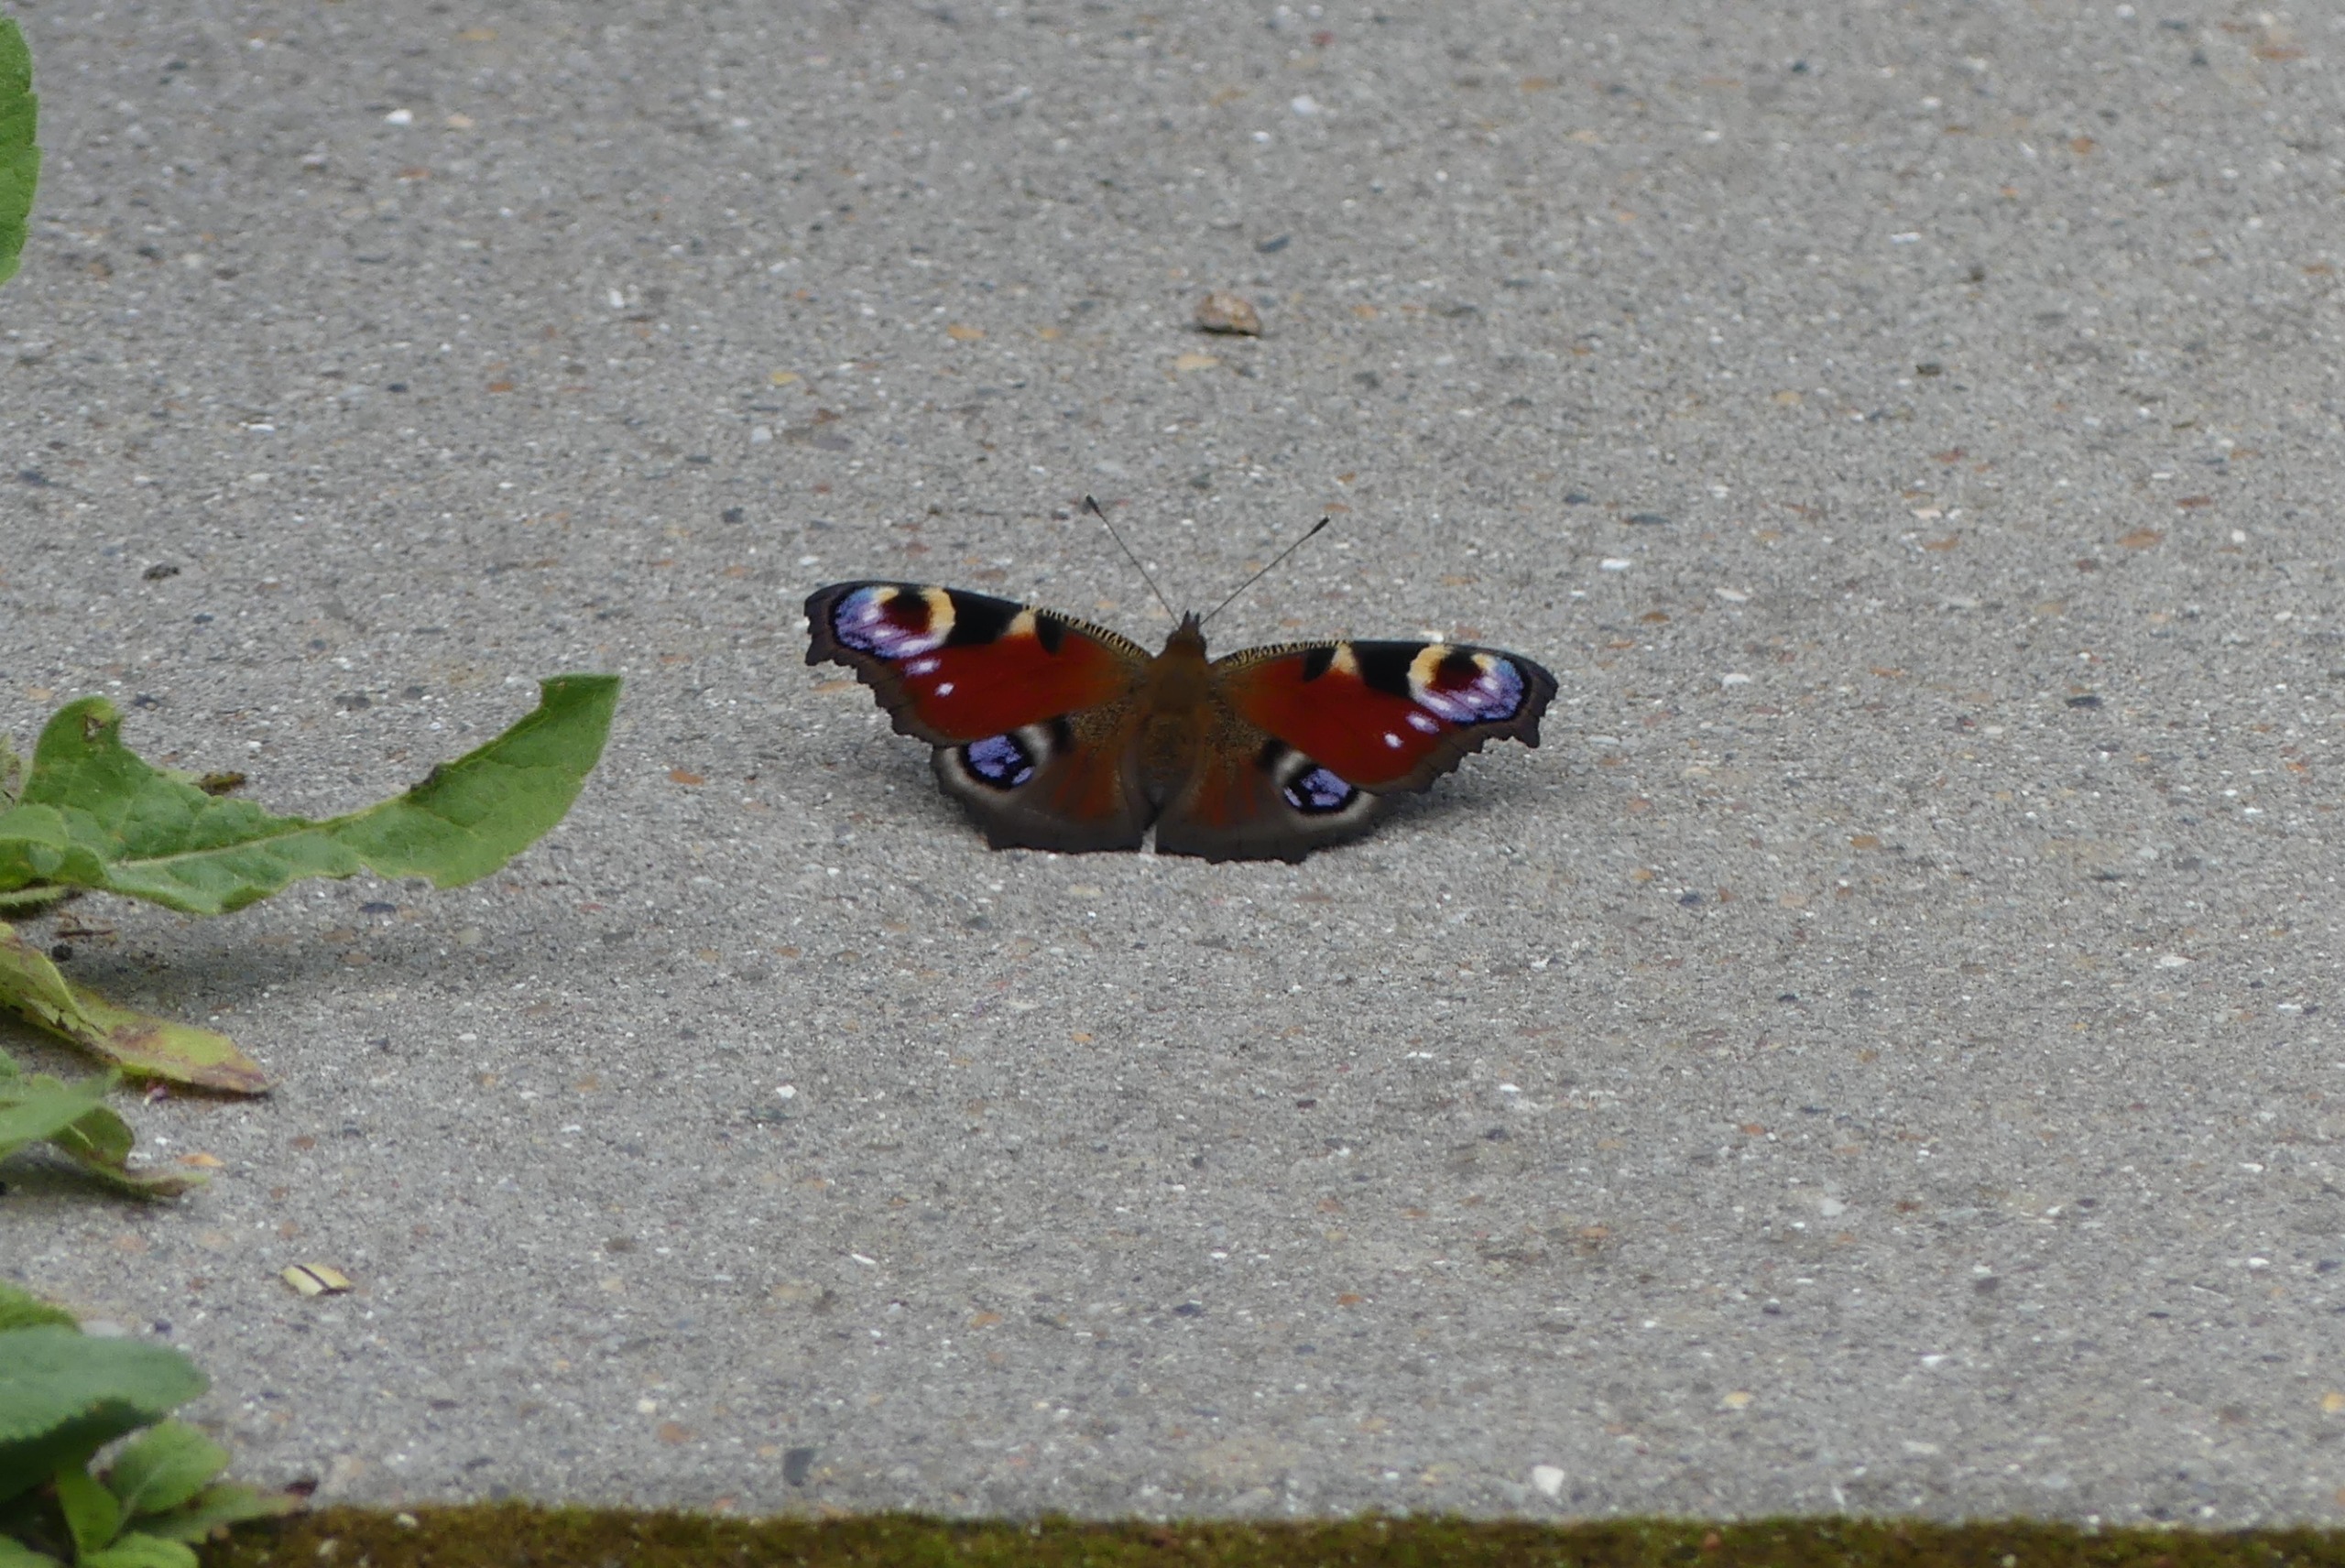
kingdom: Animalia
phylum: Arthropoda
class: Insecta
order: Lepidoptera
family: Nymphalidae
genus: Aglais
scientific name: Aglais io
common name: Dagpåfugleøje
